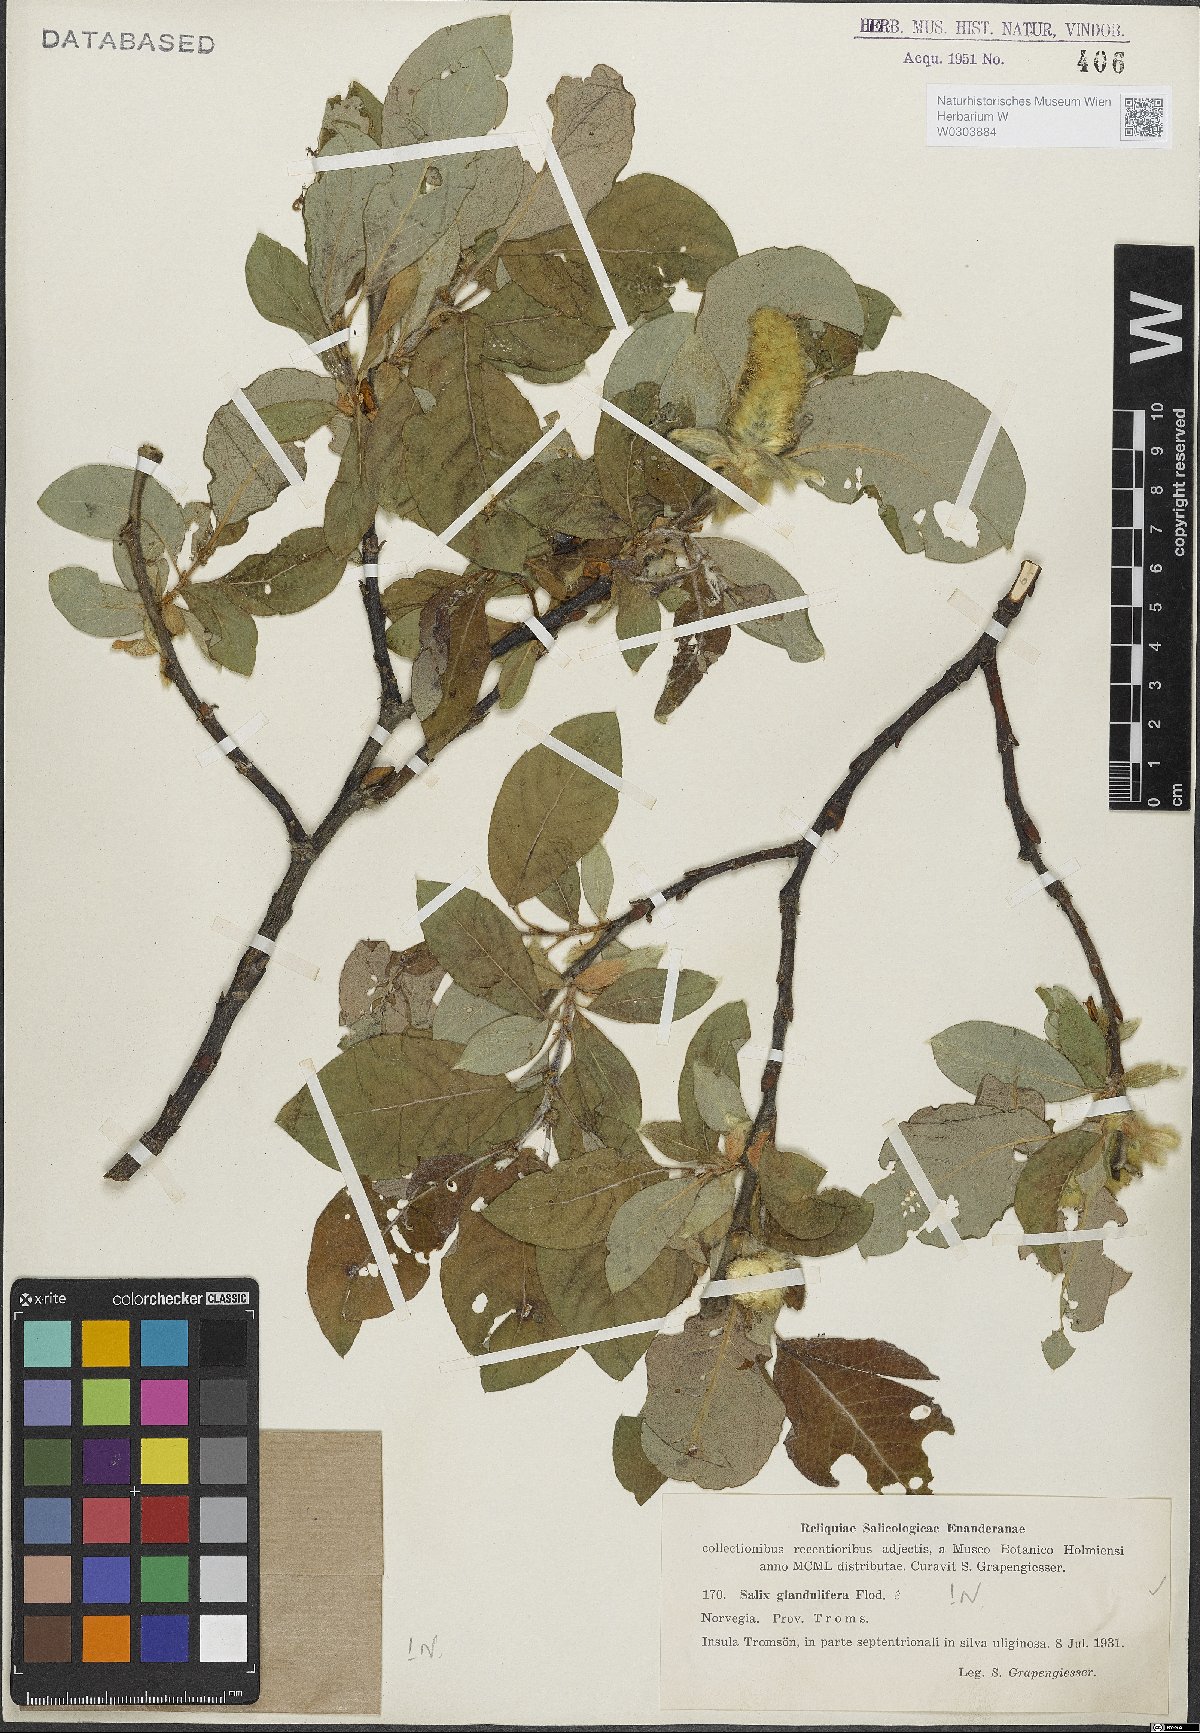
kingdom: Plantae
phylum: Tracheophyta
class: Magnoliopsida
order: Malpighiales
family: Salicaceae
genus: Salix
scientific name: Salix lanata
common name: Woolly willow
